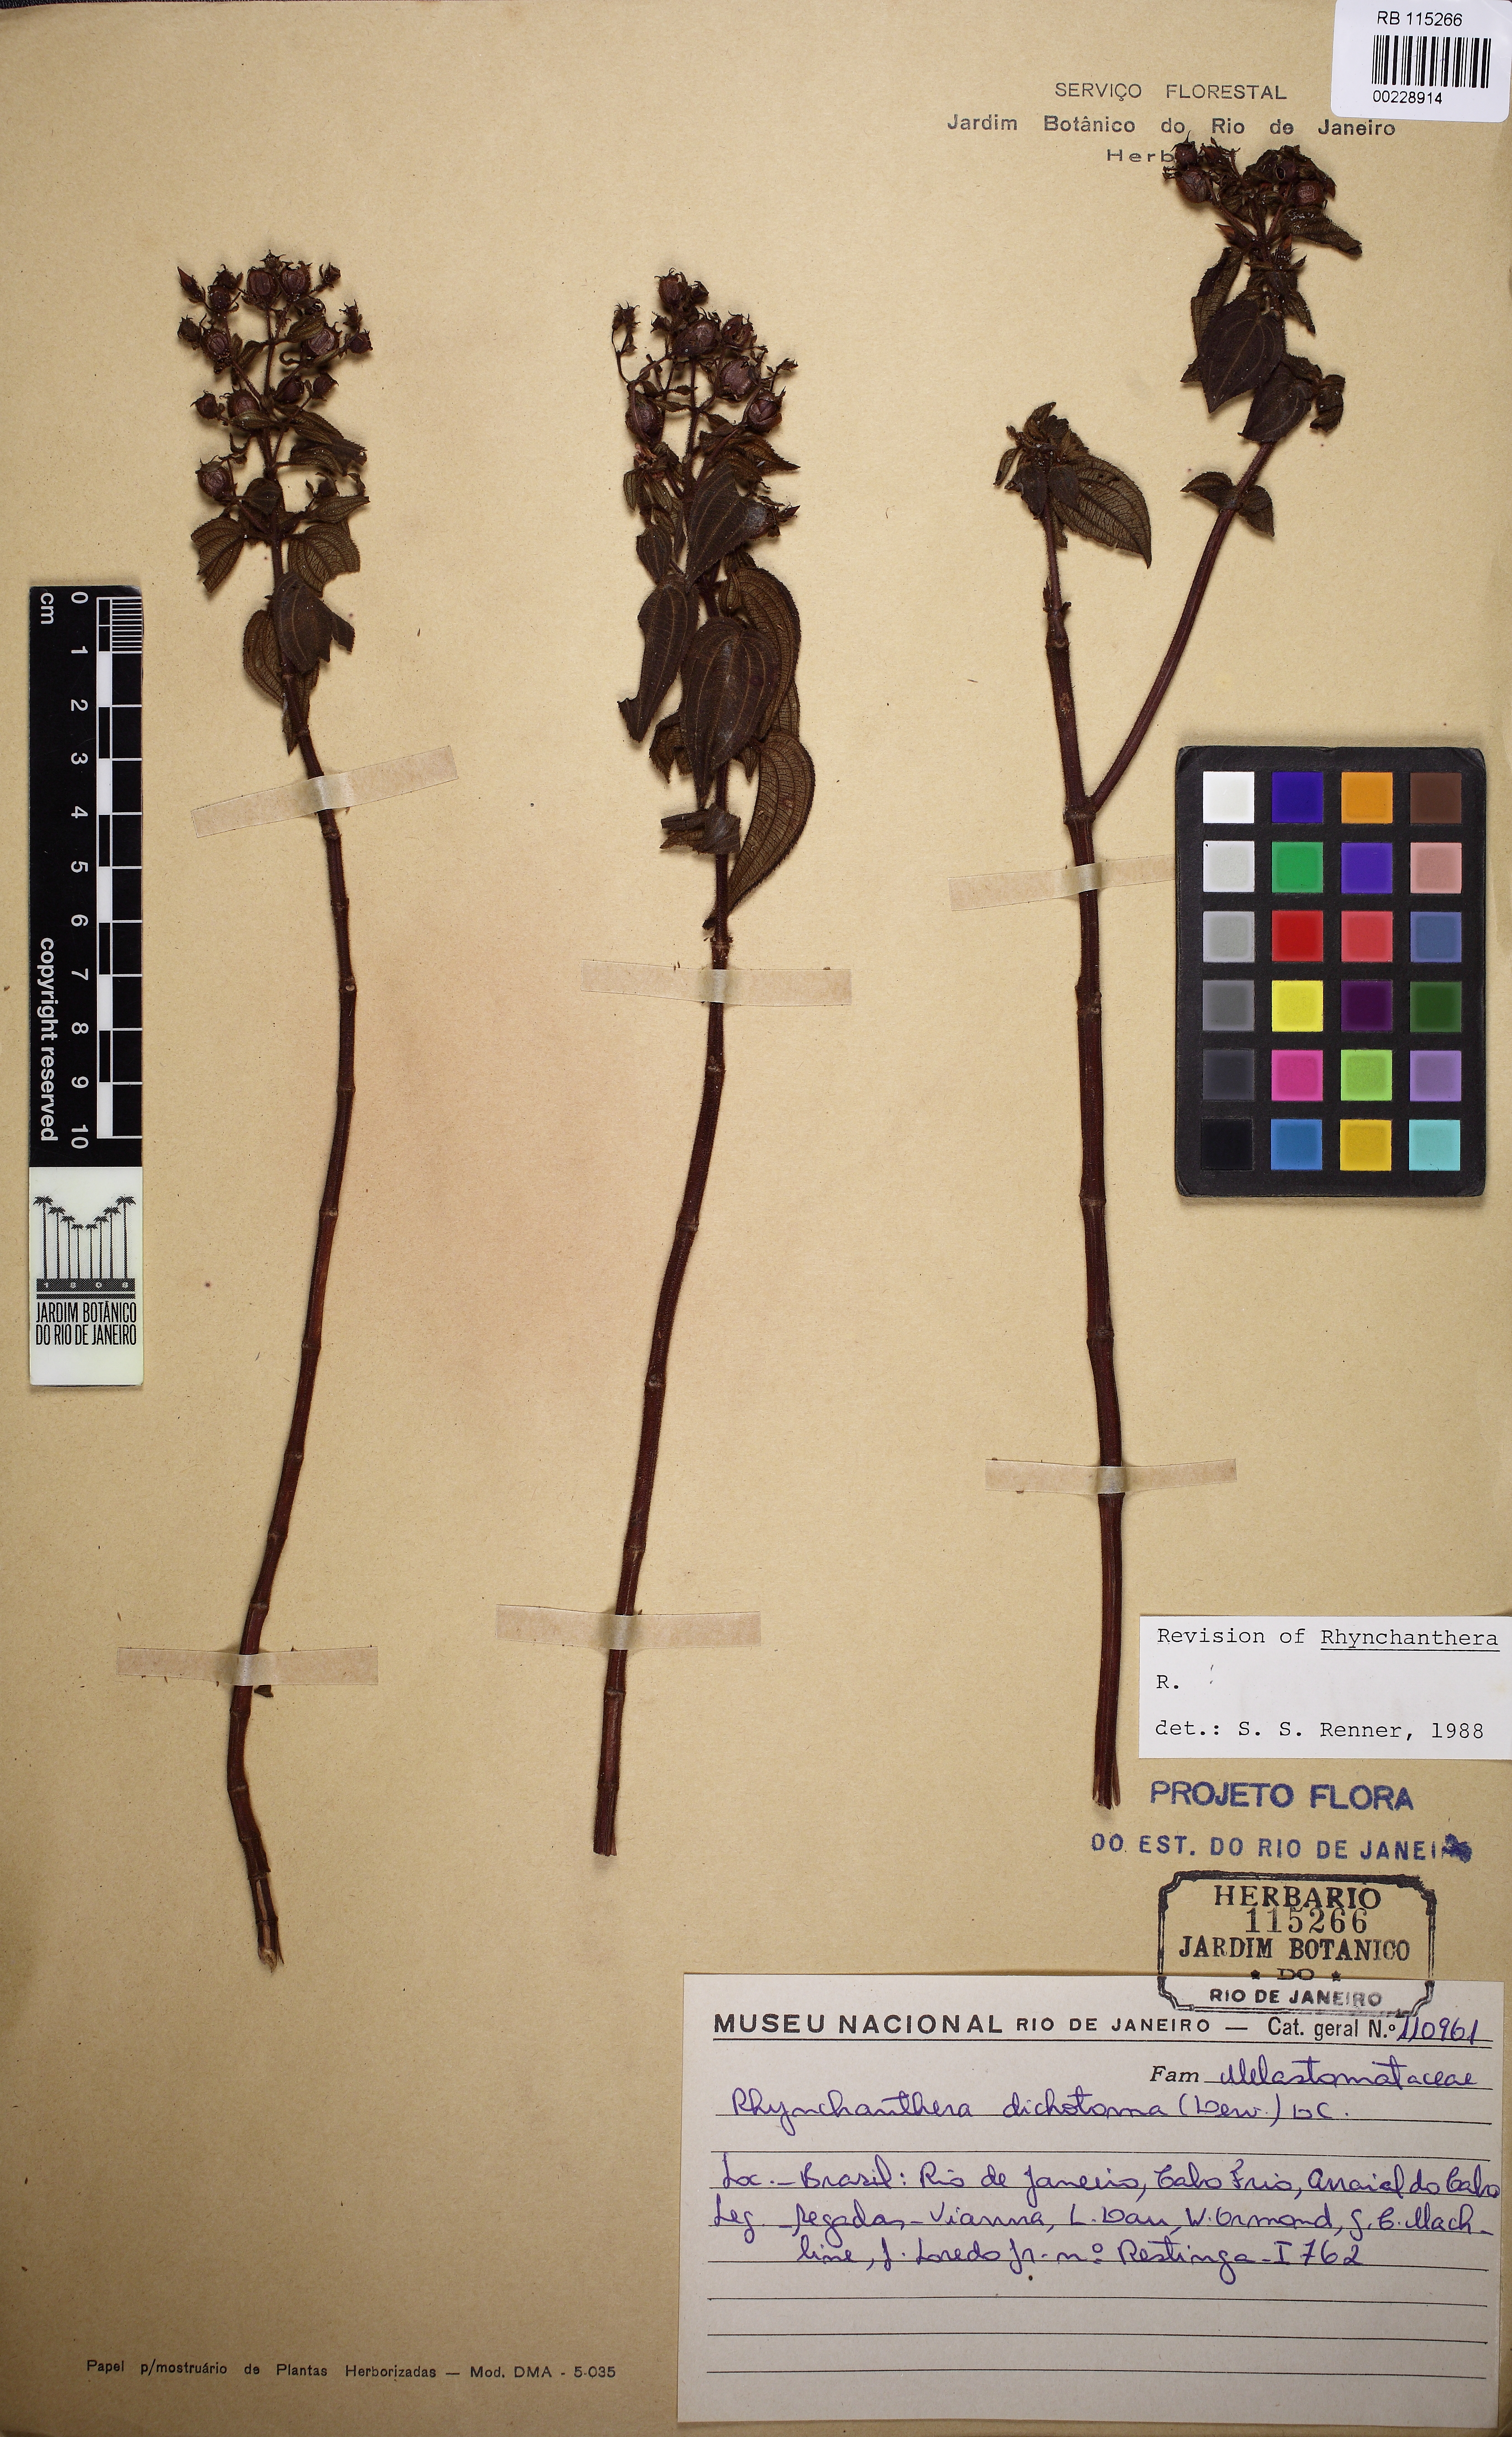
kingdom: Plantae
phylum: Tracheophyta
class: Magnoliopsida
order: Myrtales
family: Melastomataceae
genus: Rhynchanthera
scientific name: Rhynchanthera dichotoma
